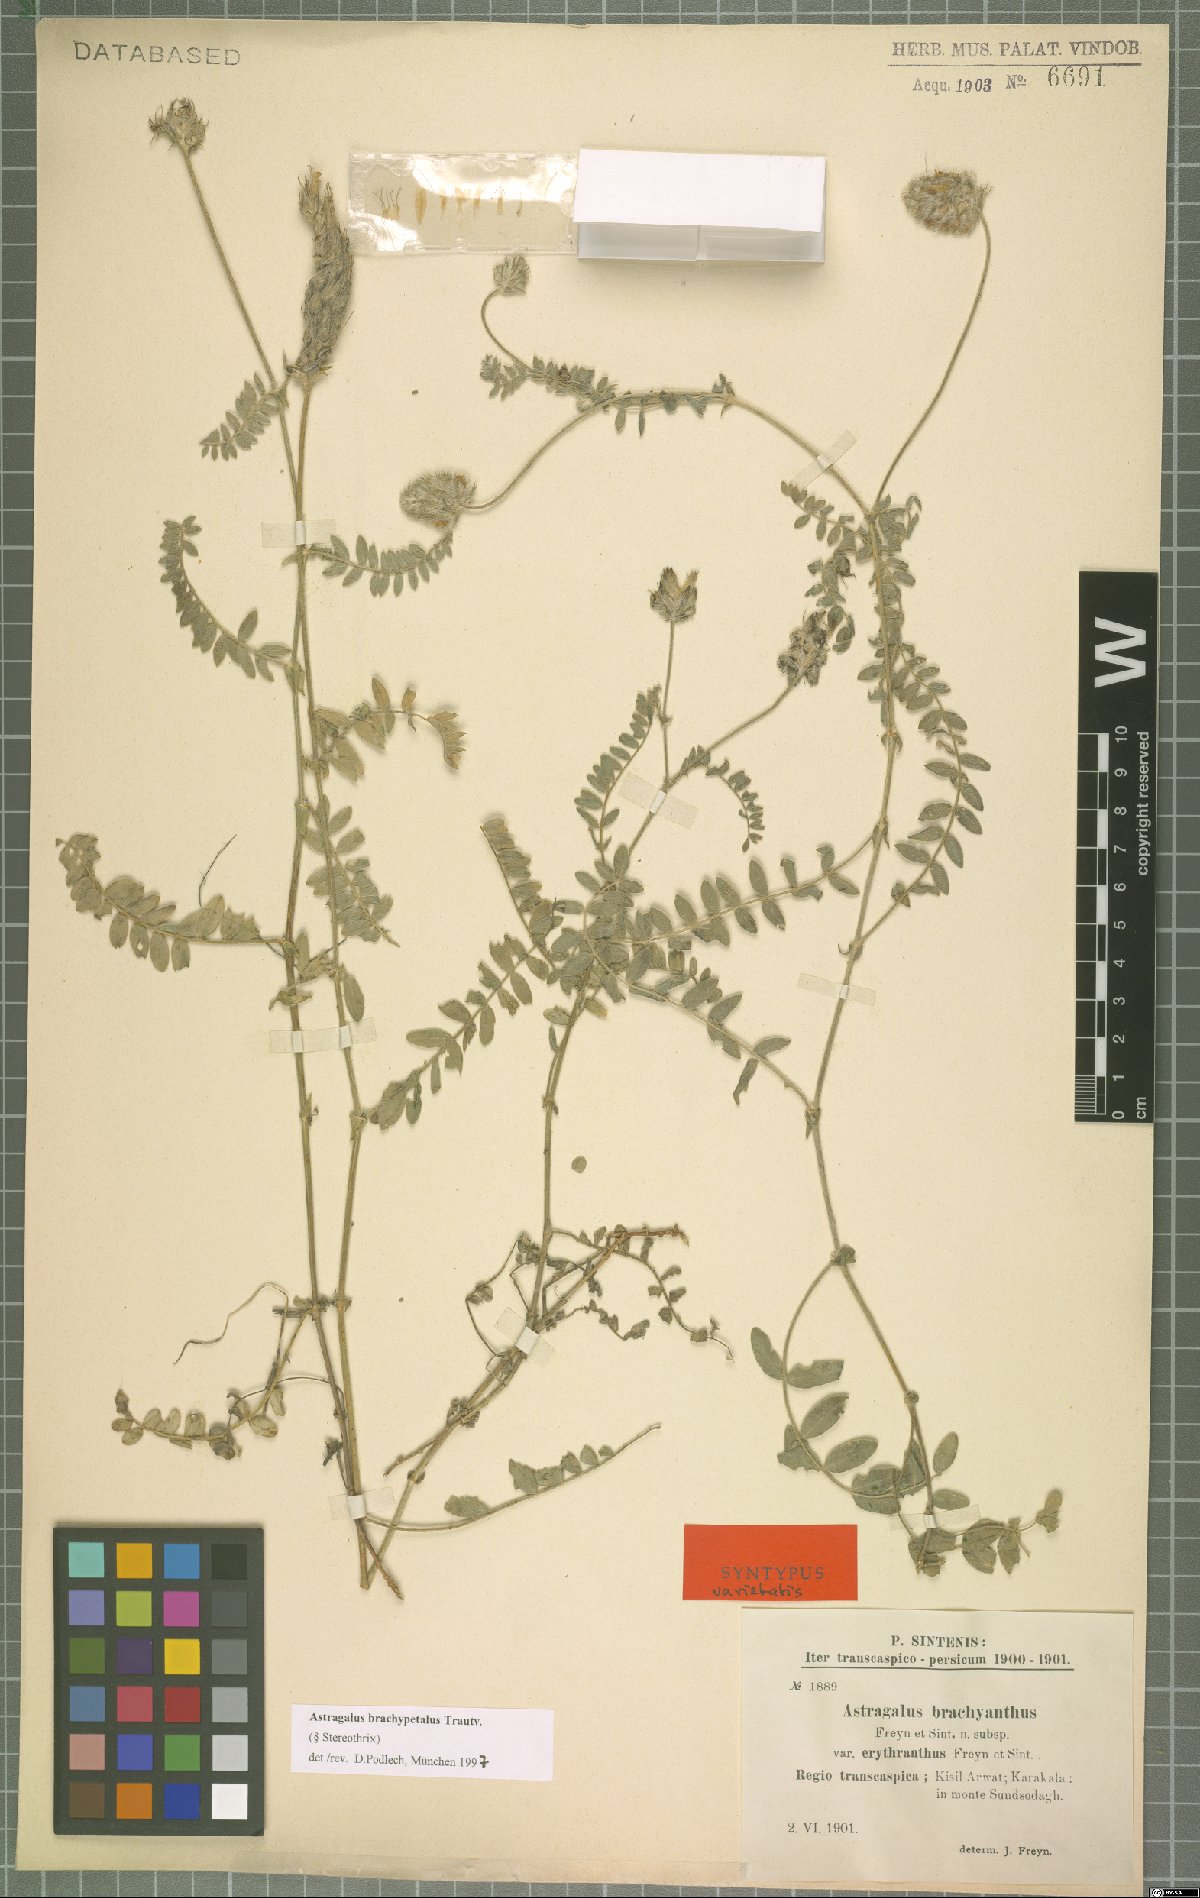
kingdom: Plantae
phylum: Tracheophyta
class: Magnoliopsida
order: Fabales
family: Fabaceae
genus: Astragalus
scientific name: Astragalus brachypetalus
